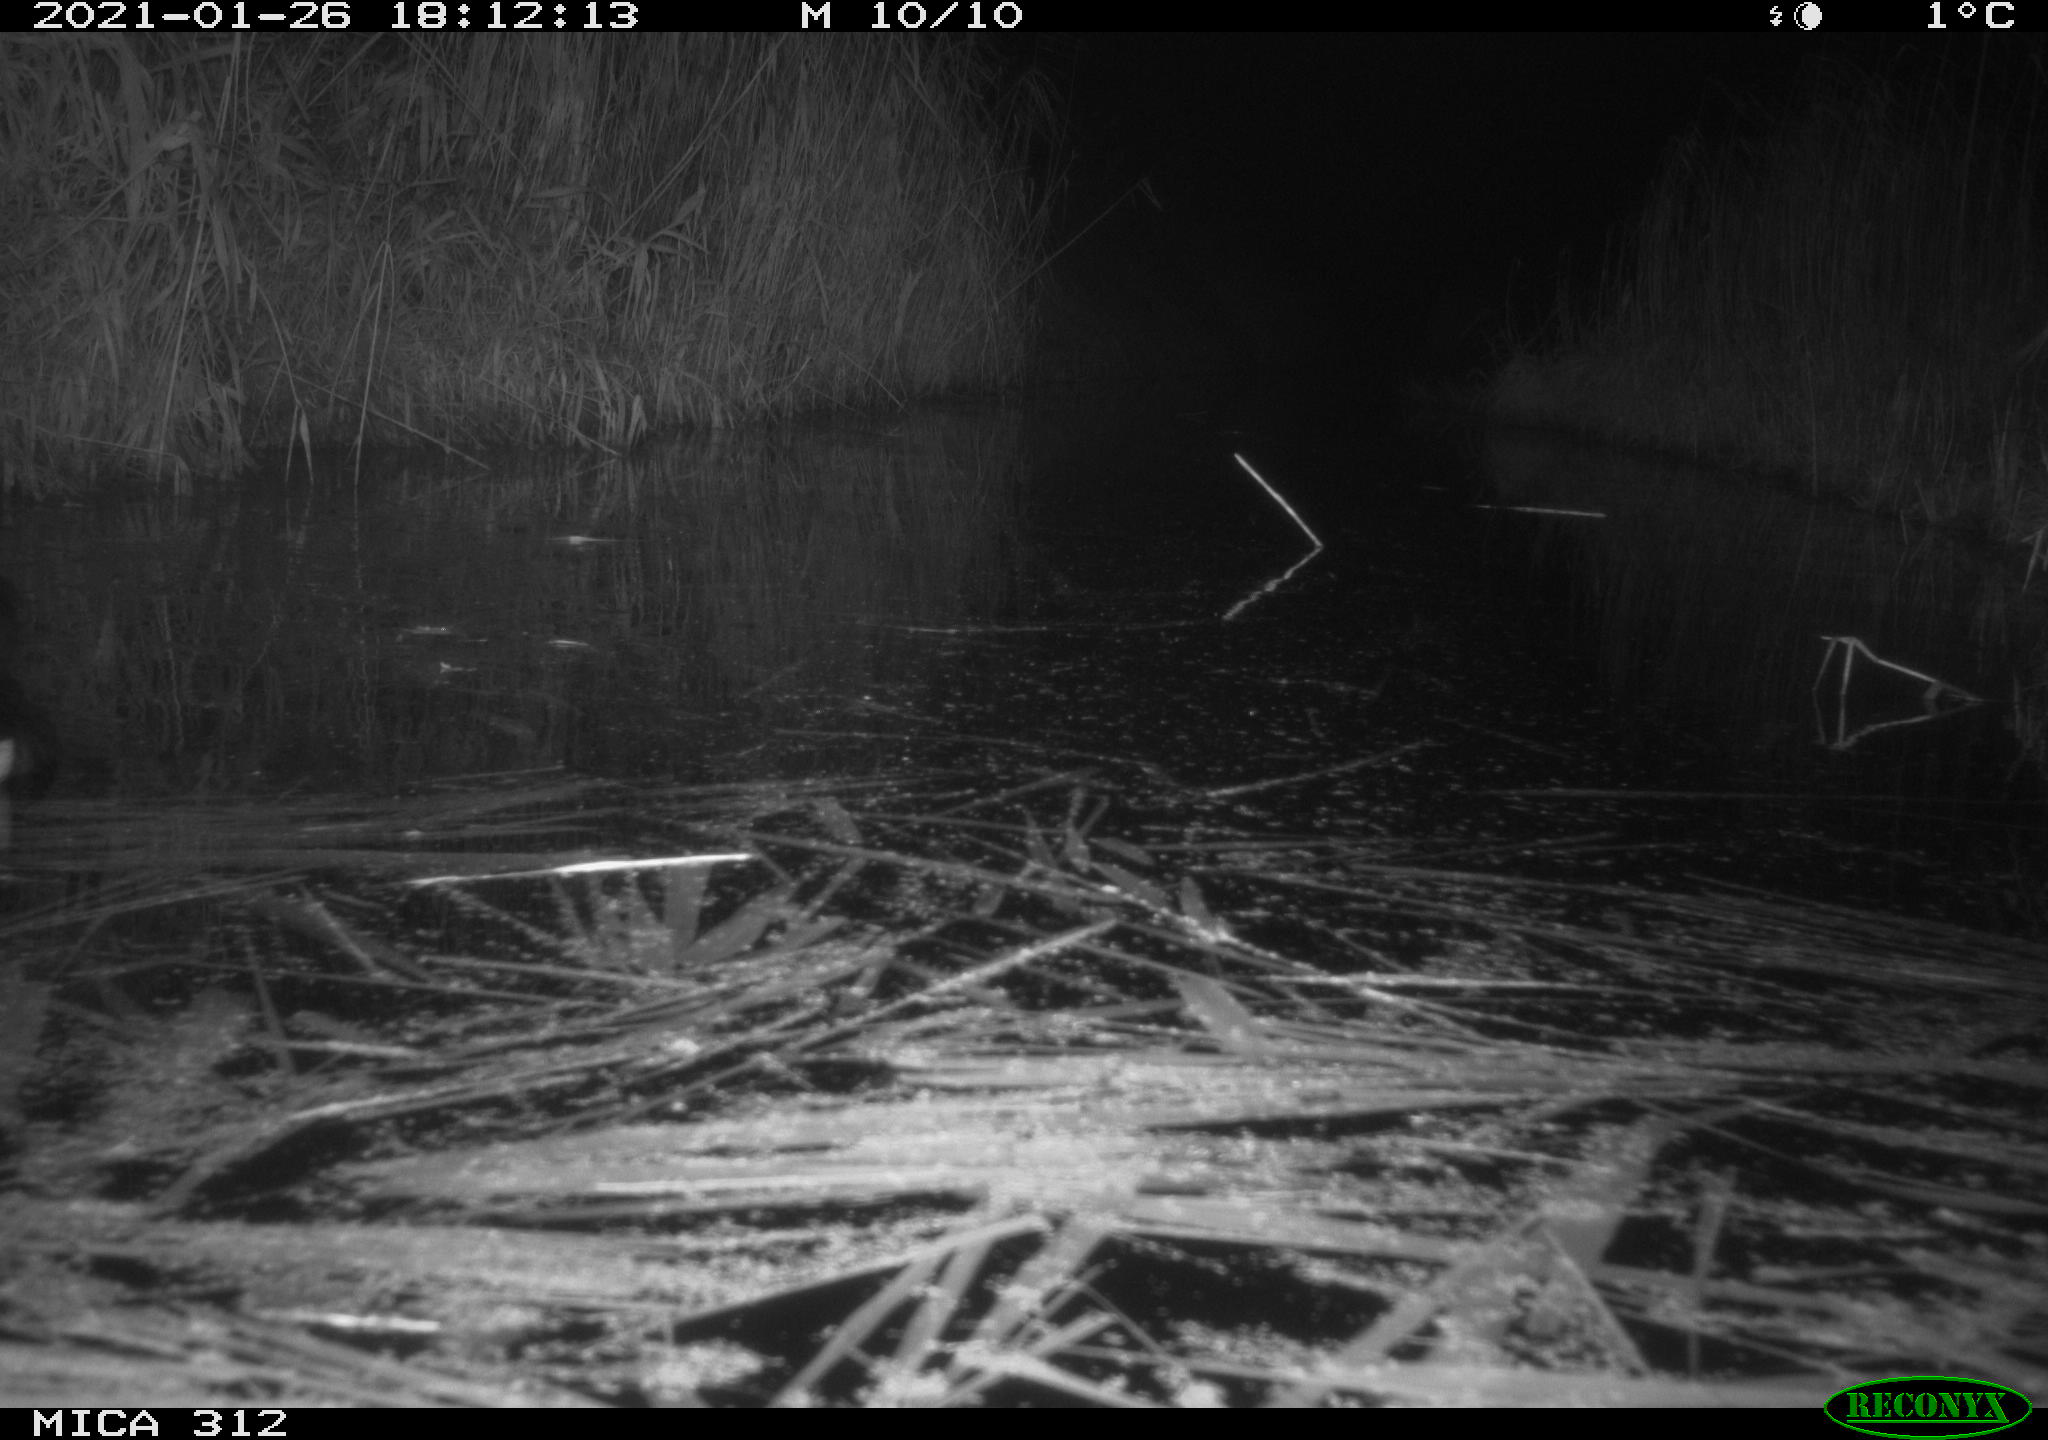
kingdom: Animalia
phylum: Chordata
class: Aves
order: Gruiformes
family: Rallidae
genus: Gallinula
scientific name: Gallinula chloropus
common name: Common moorhen
